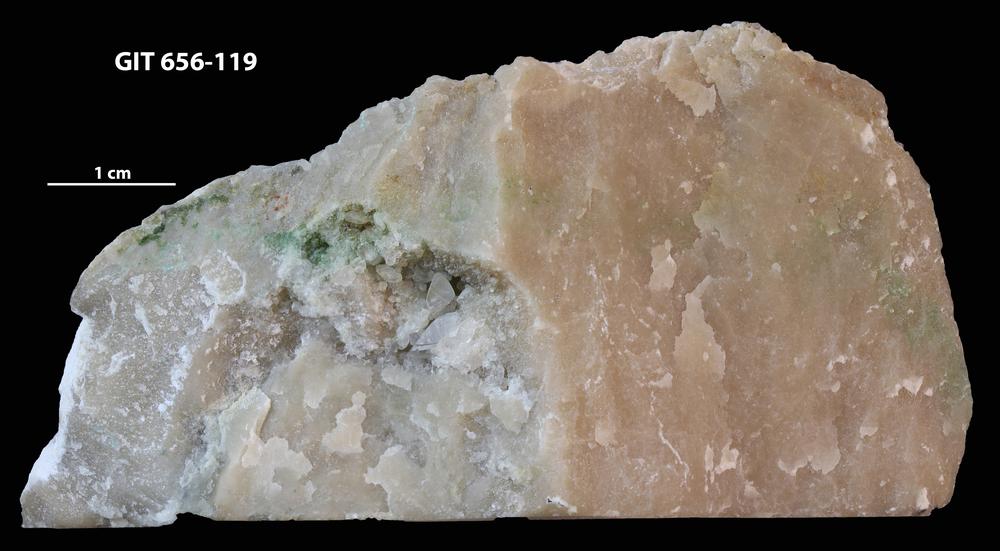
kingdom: Animalia
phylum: Porifera
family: Actinostromatidae
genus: Plectostroma
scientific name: Plectostroma
